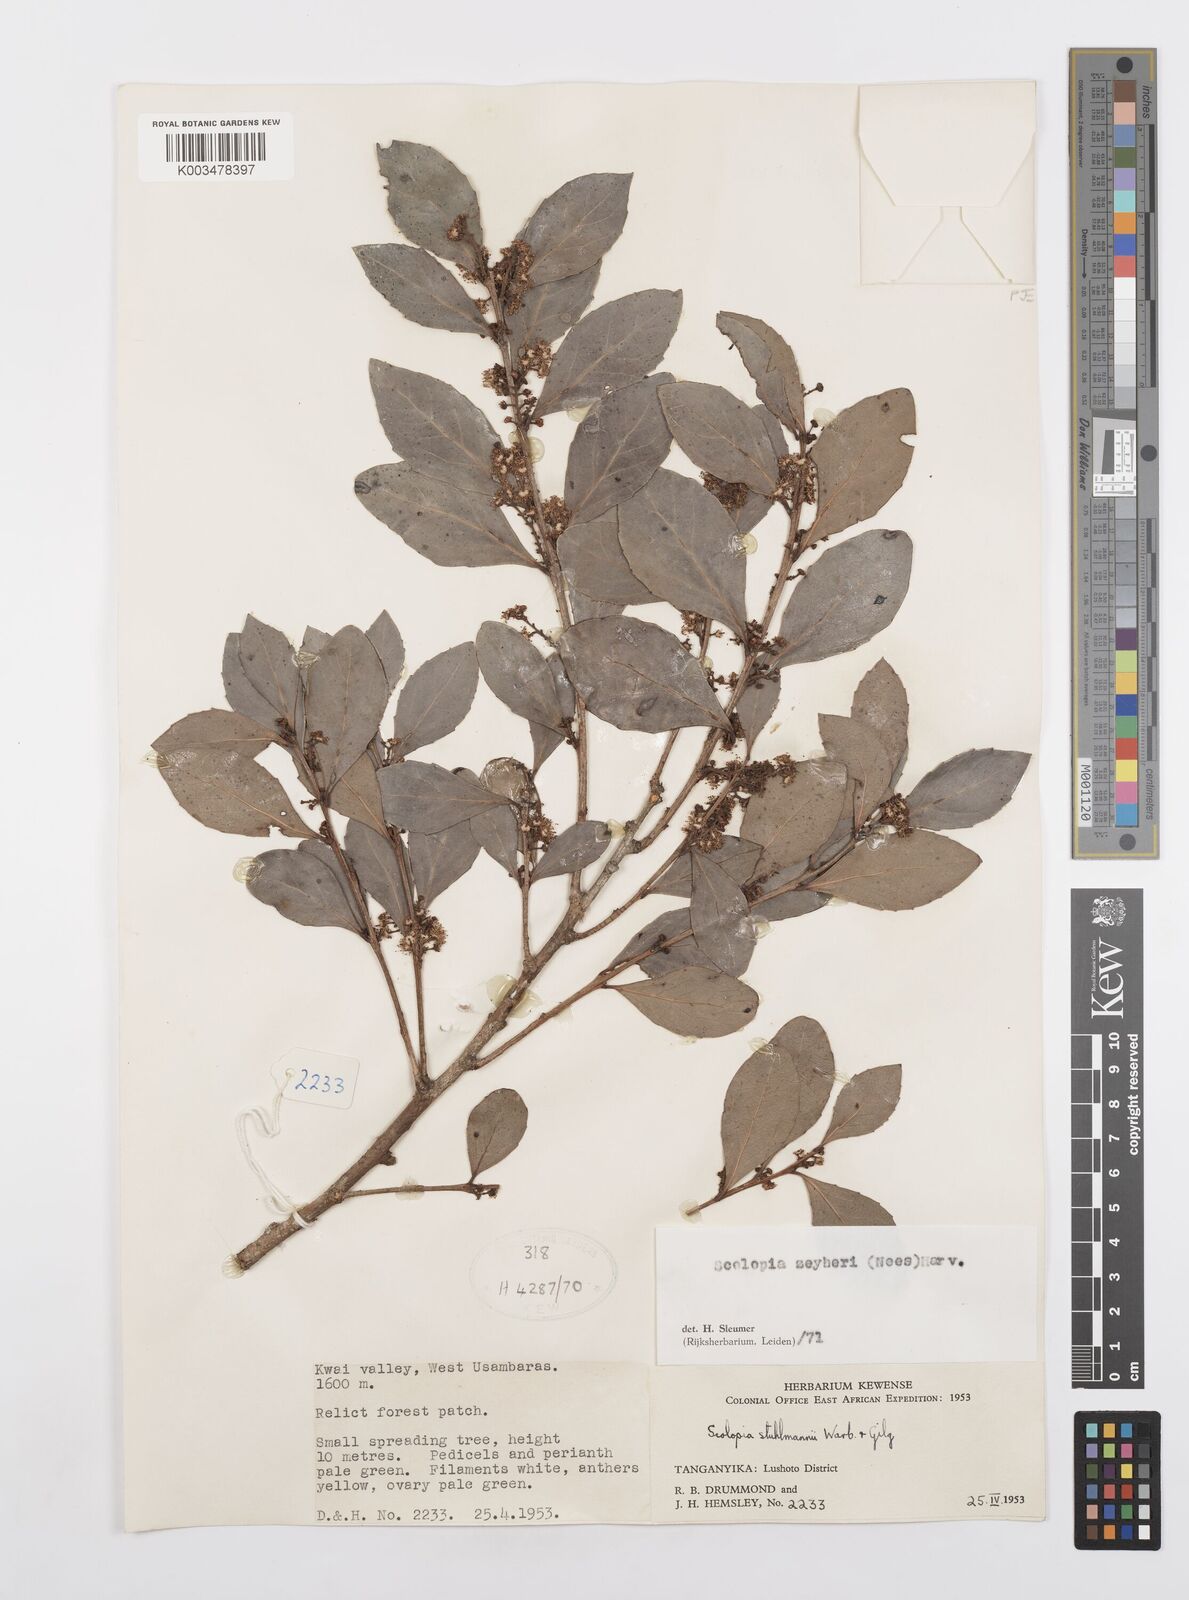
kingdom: Plantae
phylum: Tracheophyta
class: Magnoliopsida
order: Malpighiales
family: Salicaceae
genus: Scolopia
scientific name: Scolopia zeyheri
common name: Thorn pear
